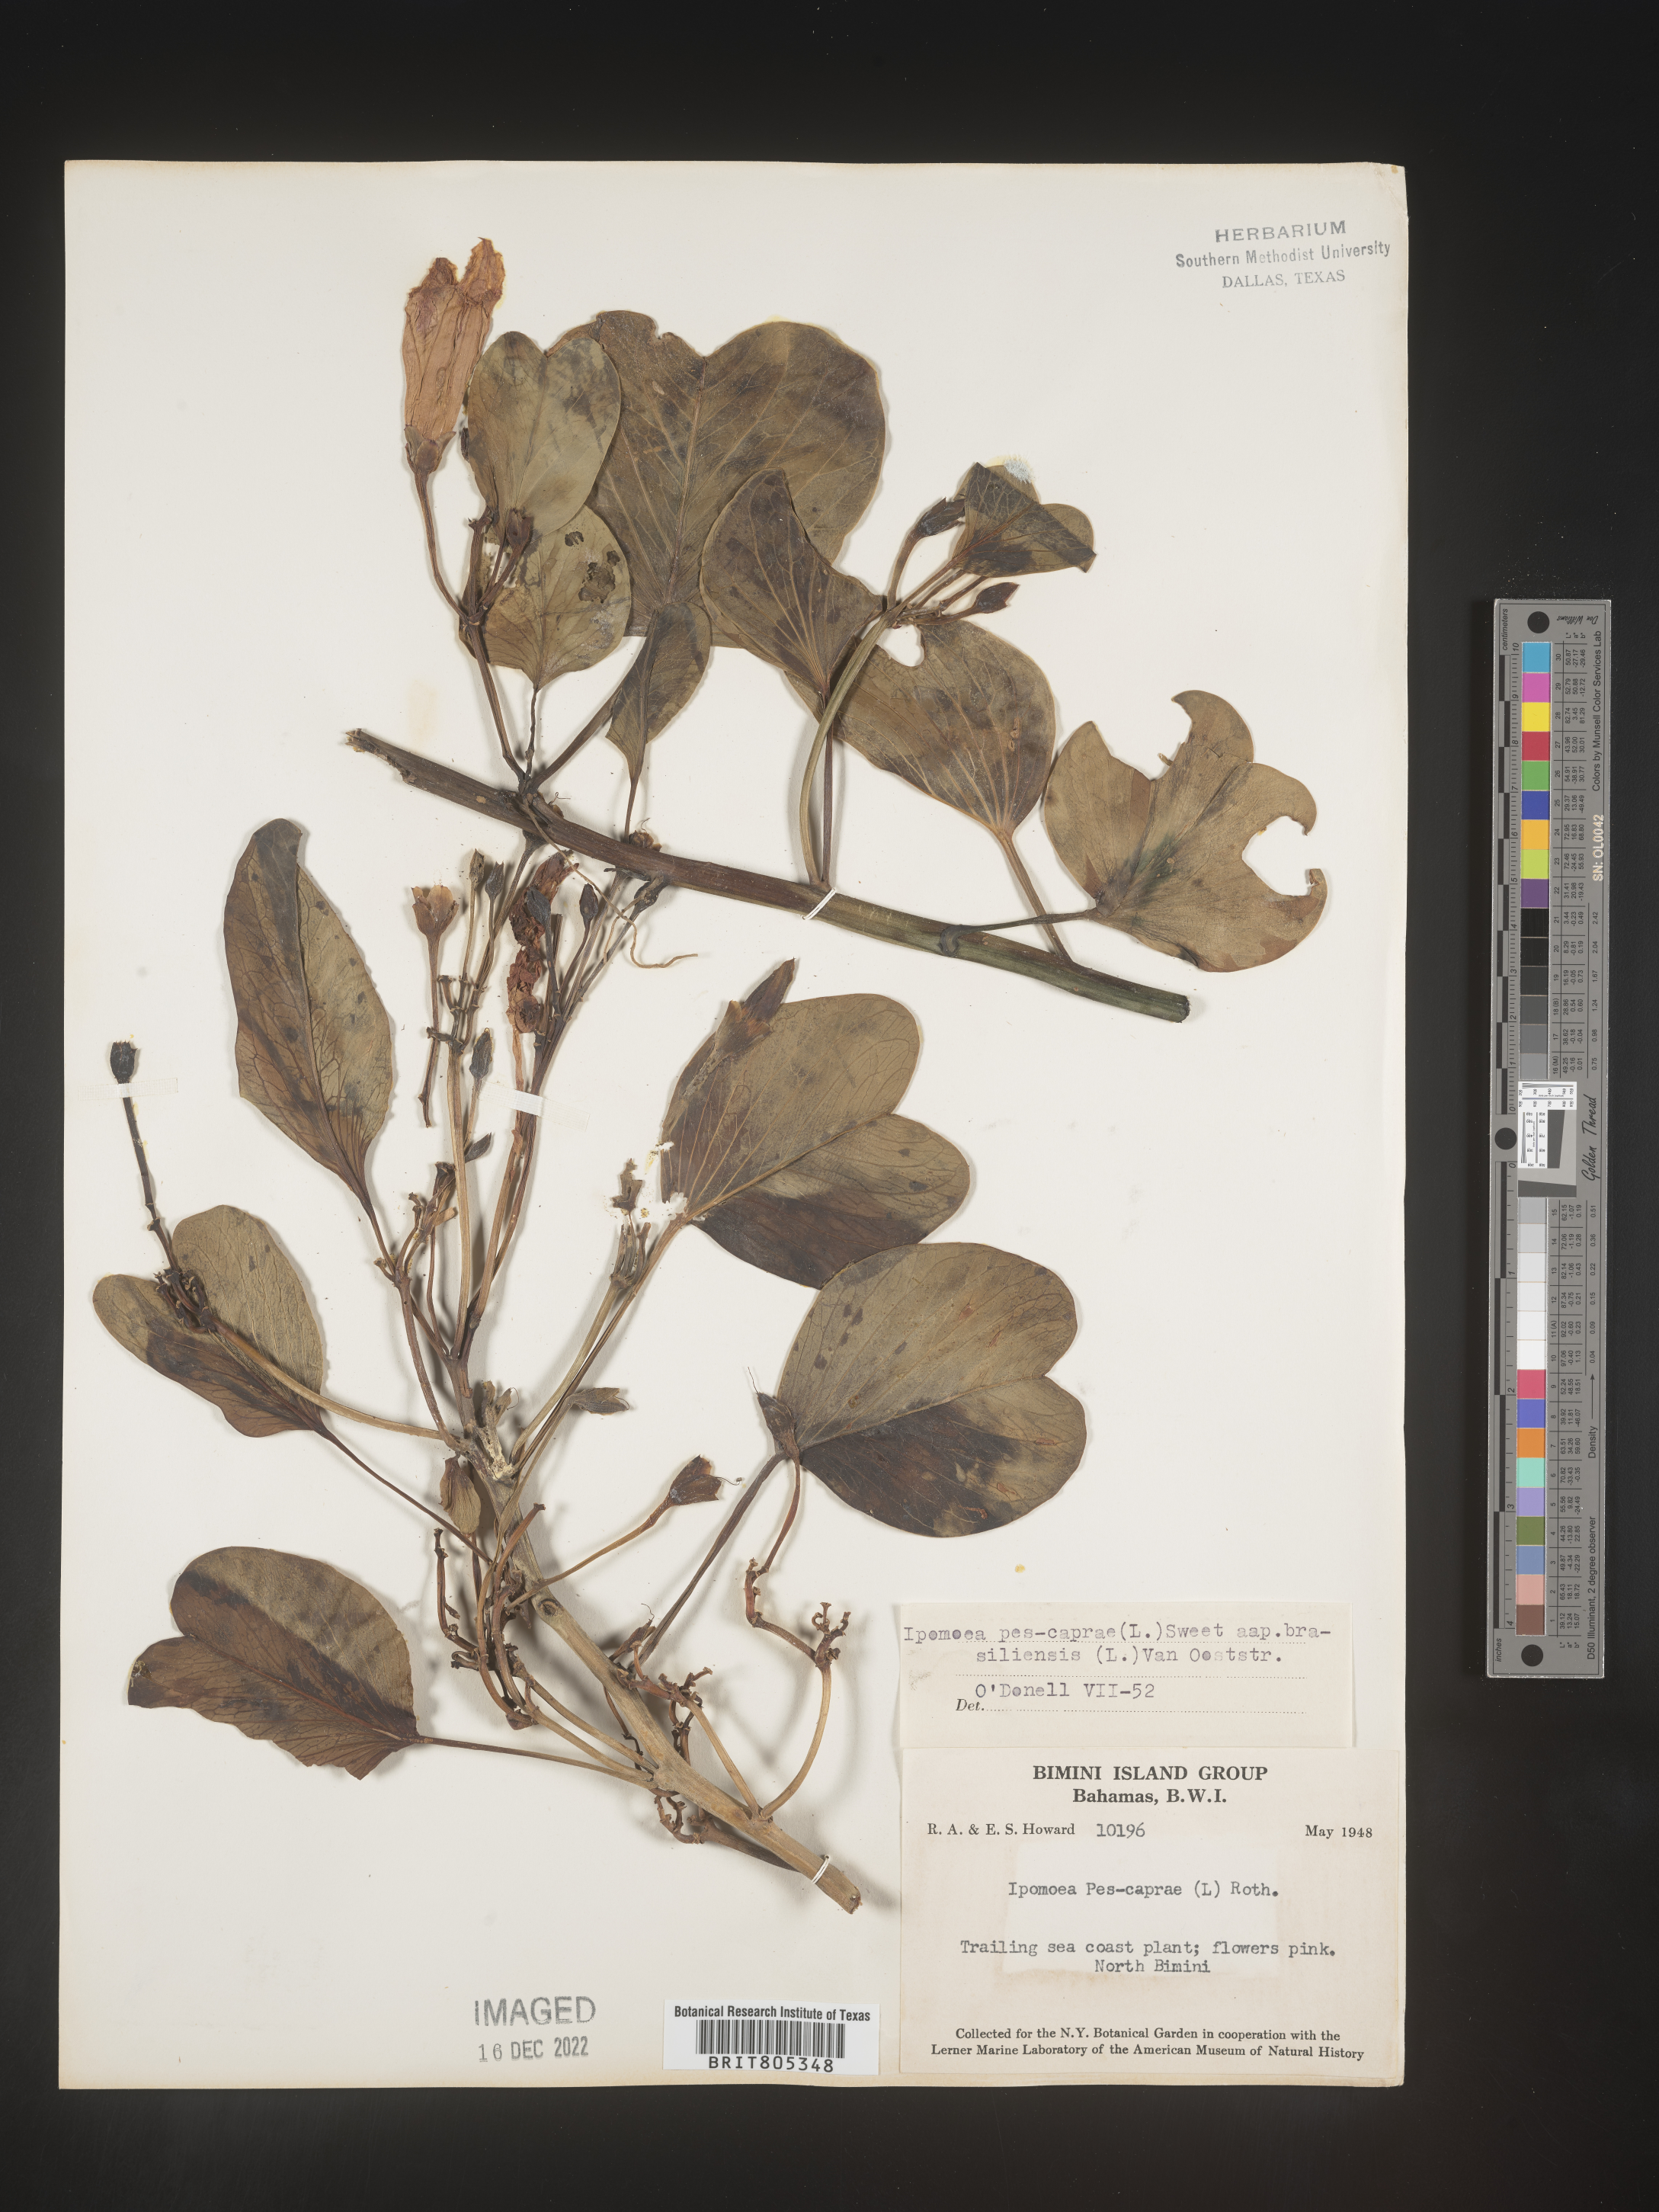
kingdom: Plantae
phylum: Tracheophyta
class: Magnoliopsida
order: Solanales
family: Convolvulaceae
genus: Ipomoea
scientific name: Ipomoea
